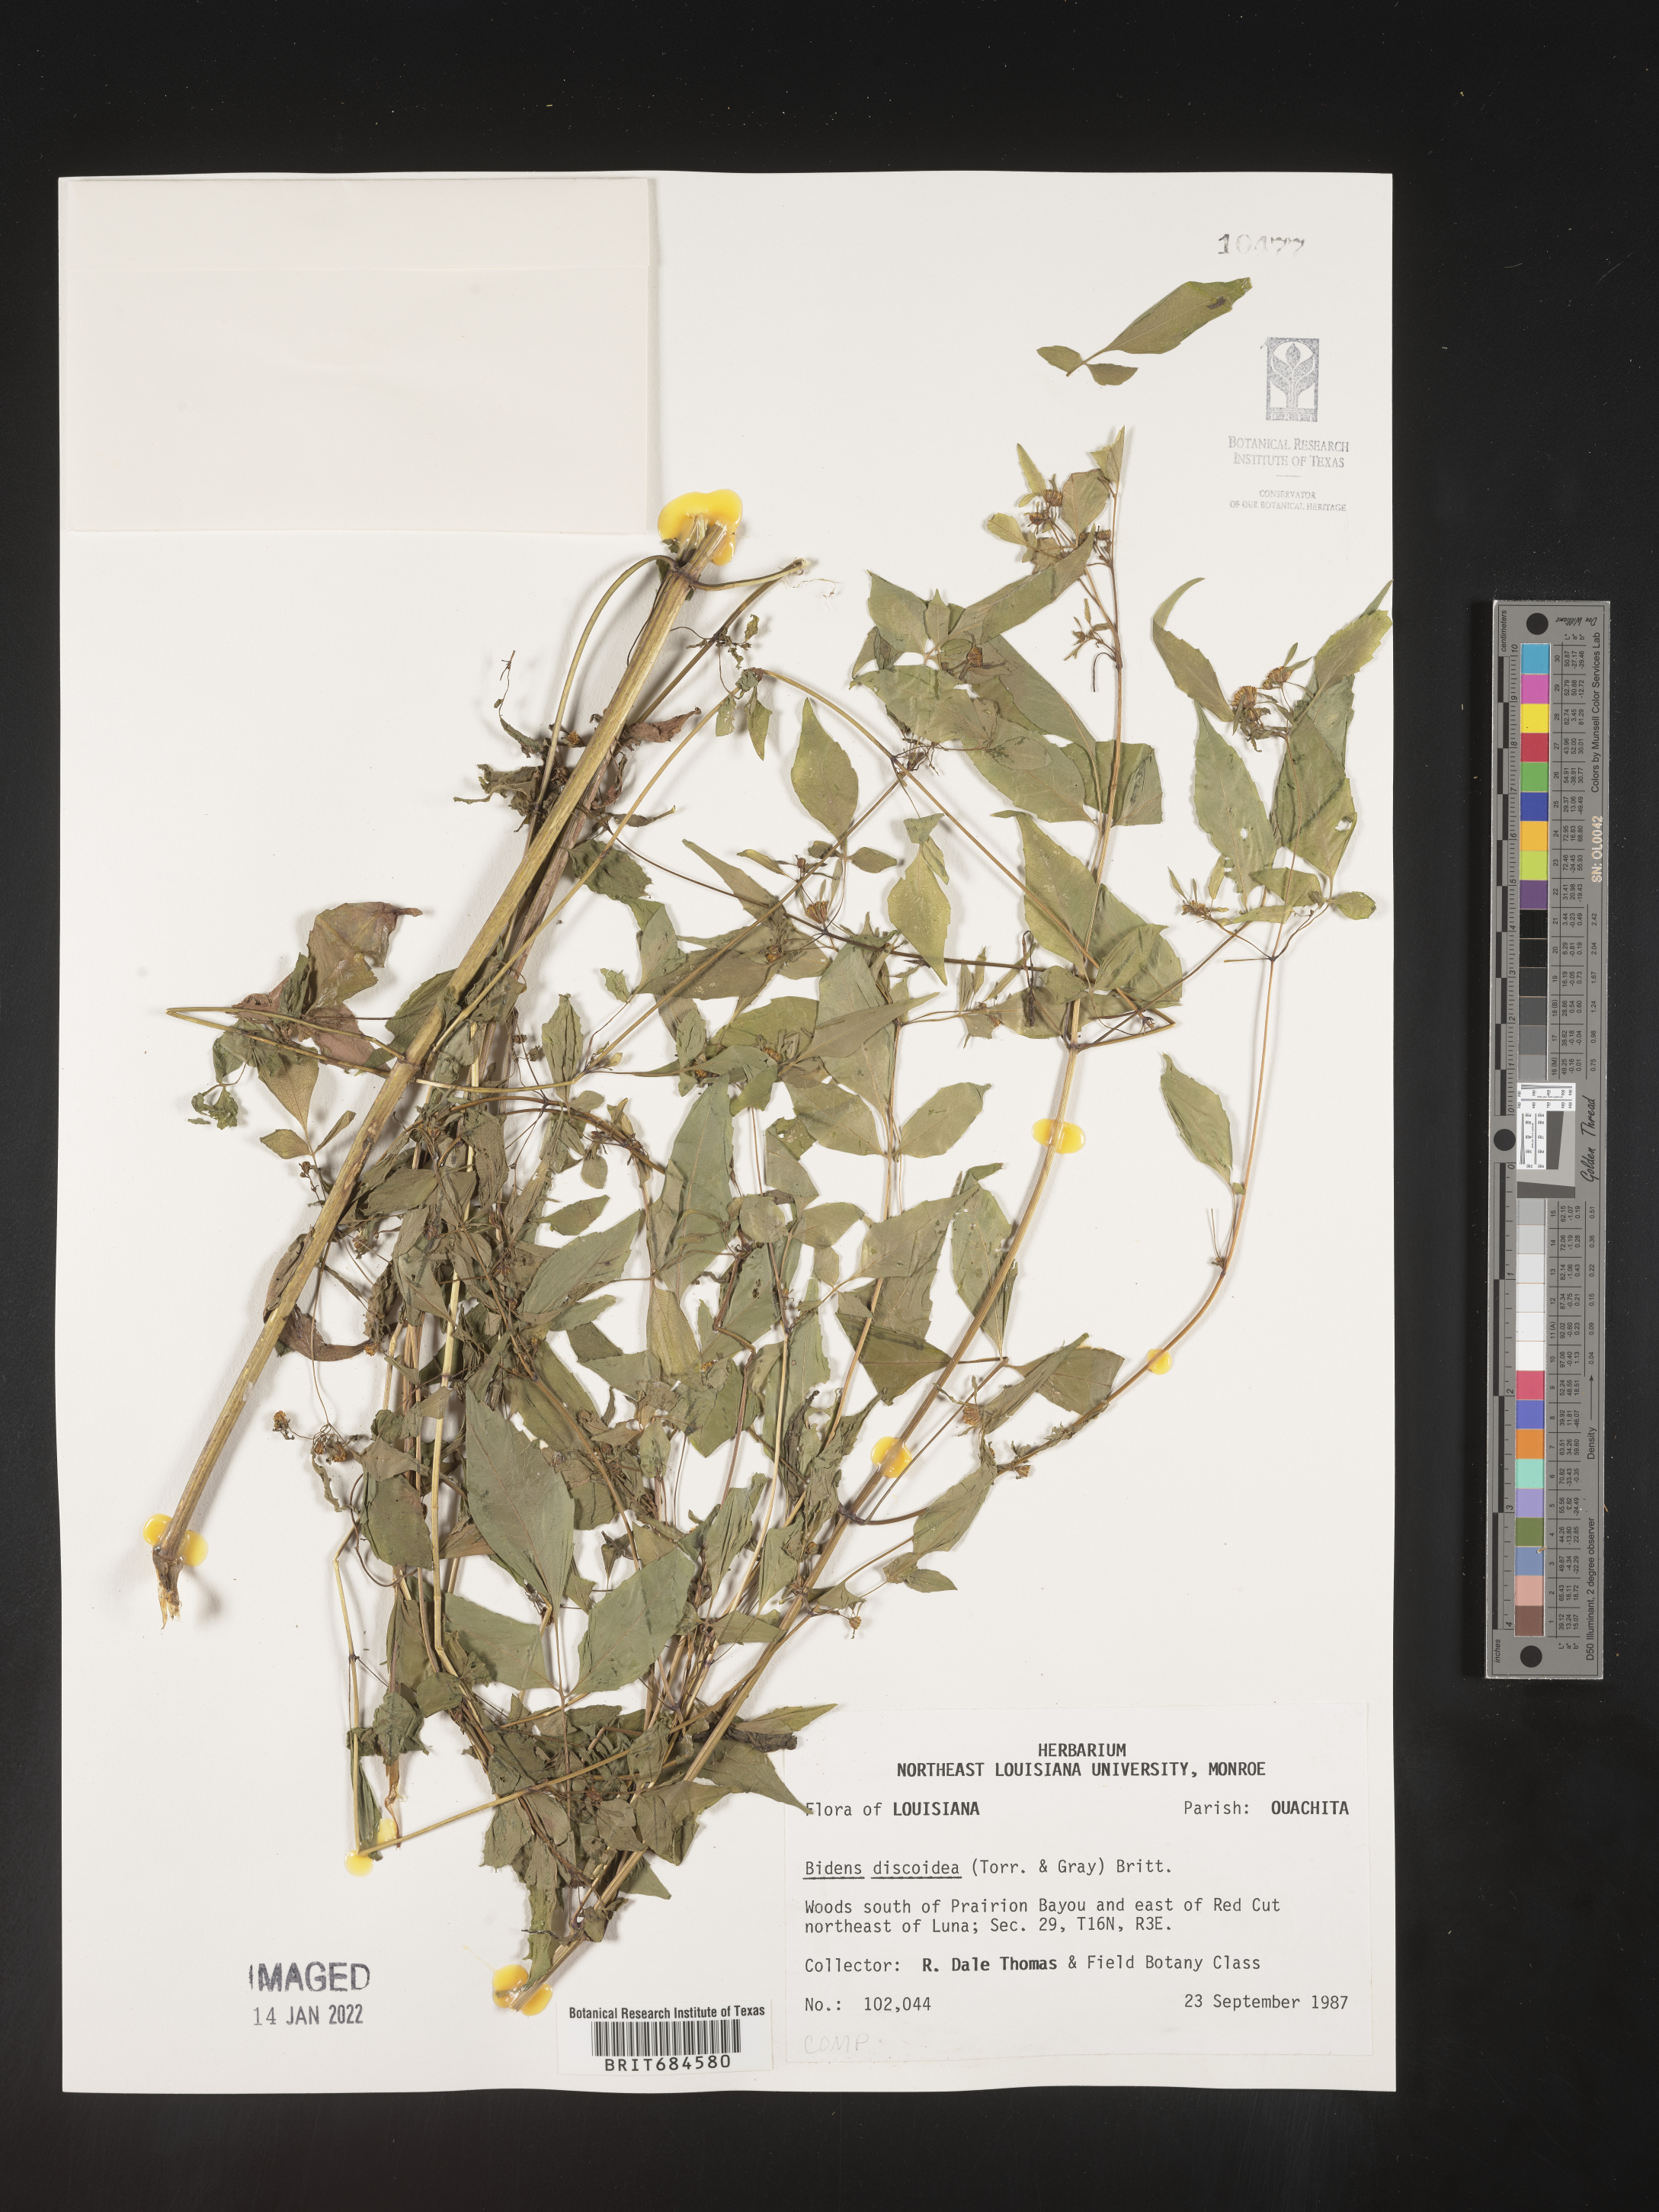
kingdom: Plantae
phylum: Tracheophyta
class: Magnoliopsida
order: Asterales
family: Asteraceae
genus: Bidens
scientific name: Bidens discoidea
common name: Discoide beggarticks
